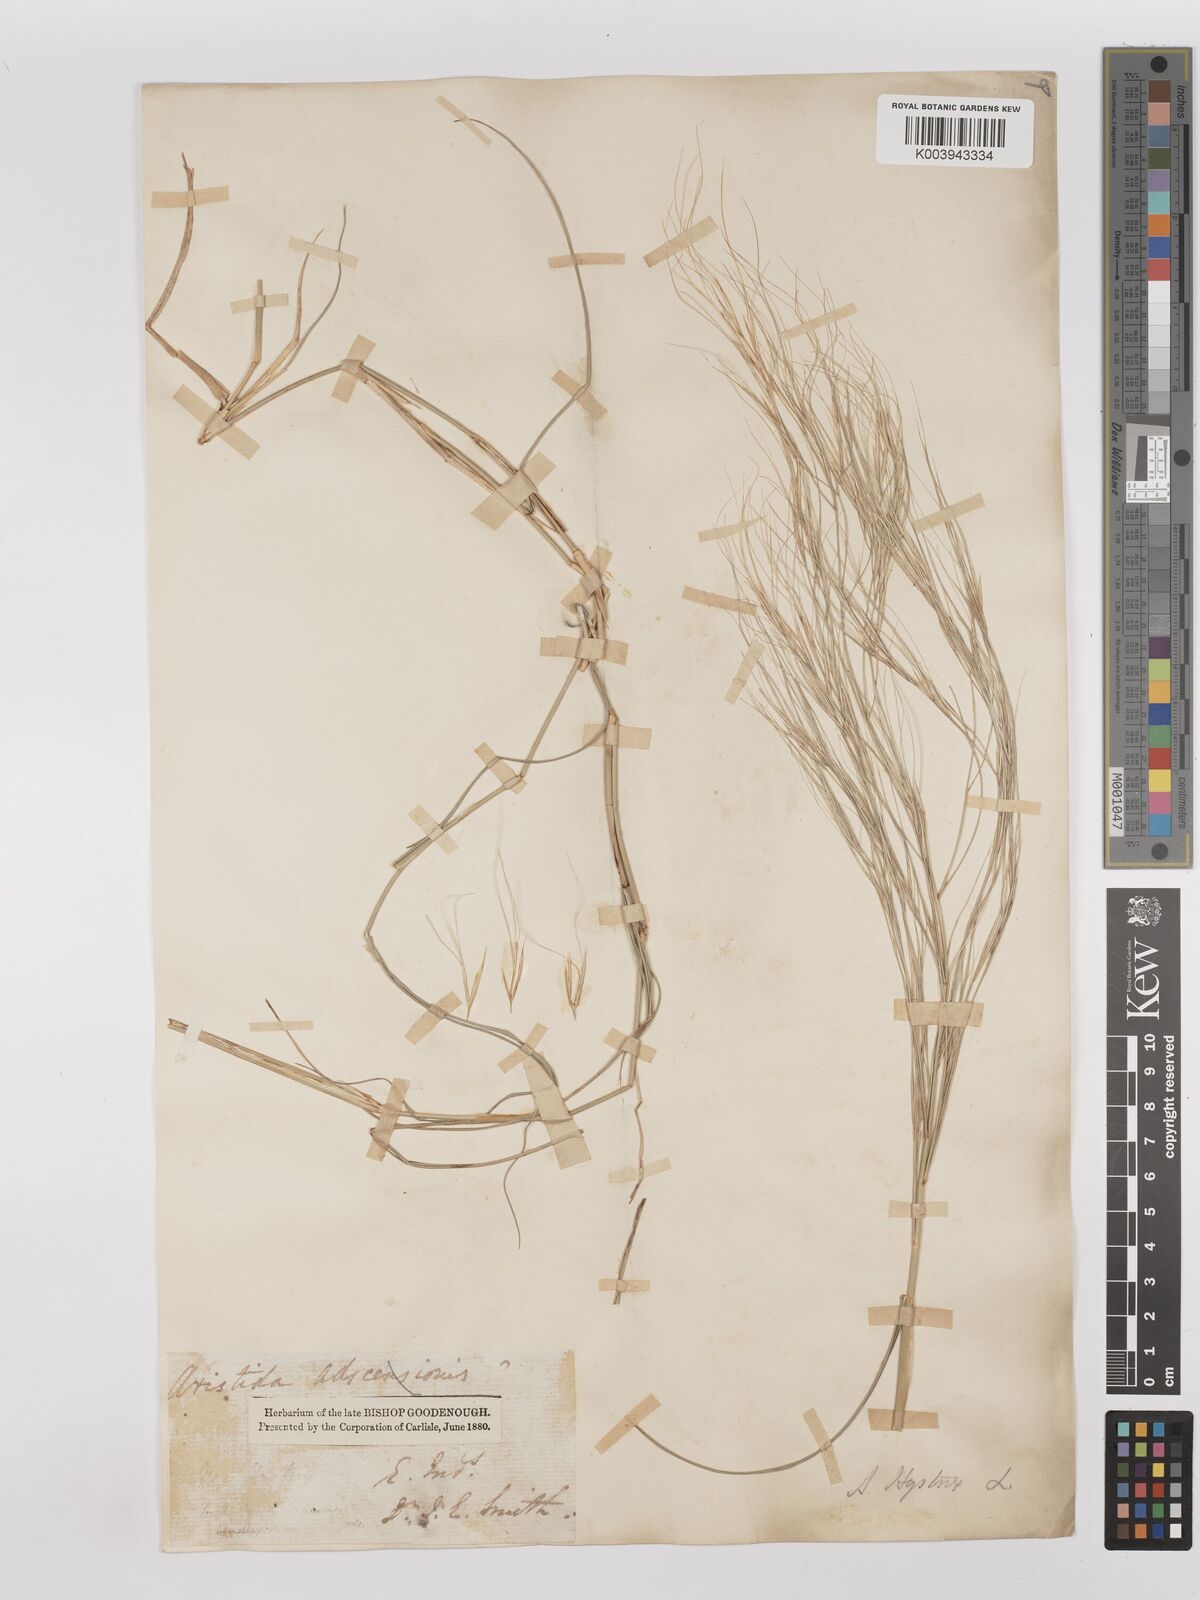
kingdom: Plantae
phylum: Tracheophyta
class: Liliopsida
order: Poales
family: Poaceae
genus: Aristida
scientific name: Aristida hystrix
